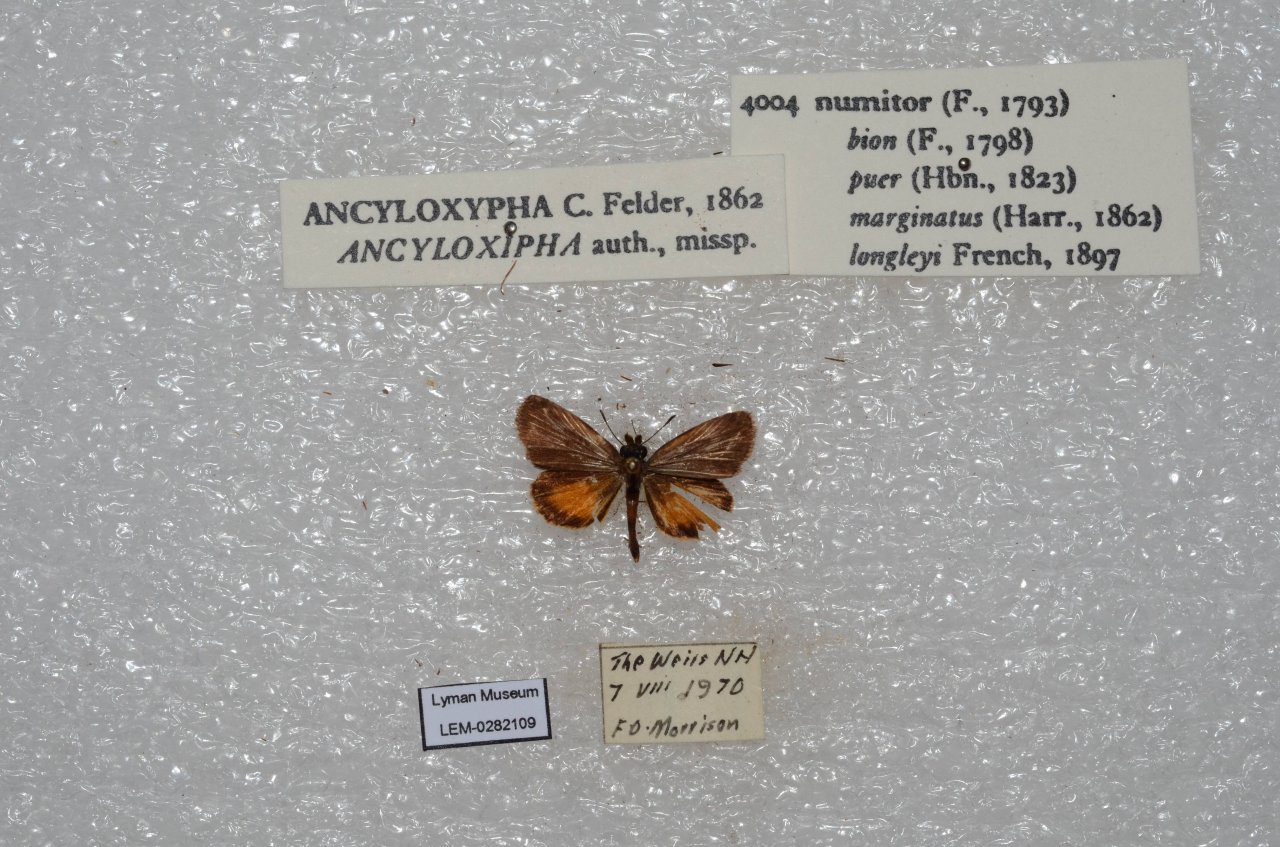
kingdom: Animalia
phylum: Arthropoda
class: Insecta
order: Lepidoptera
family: Hesperiidae
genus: Ancyloxypha
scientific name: Ancyloxypha numitor
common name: Least Skipper
